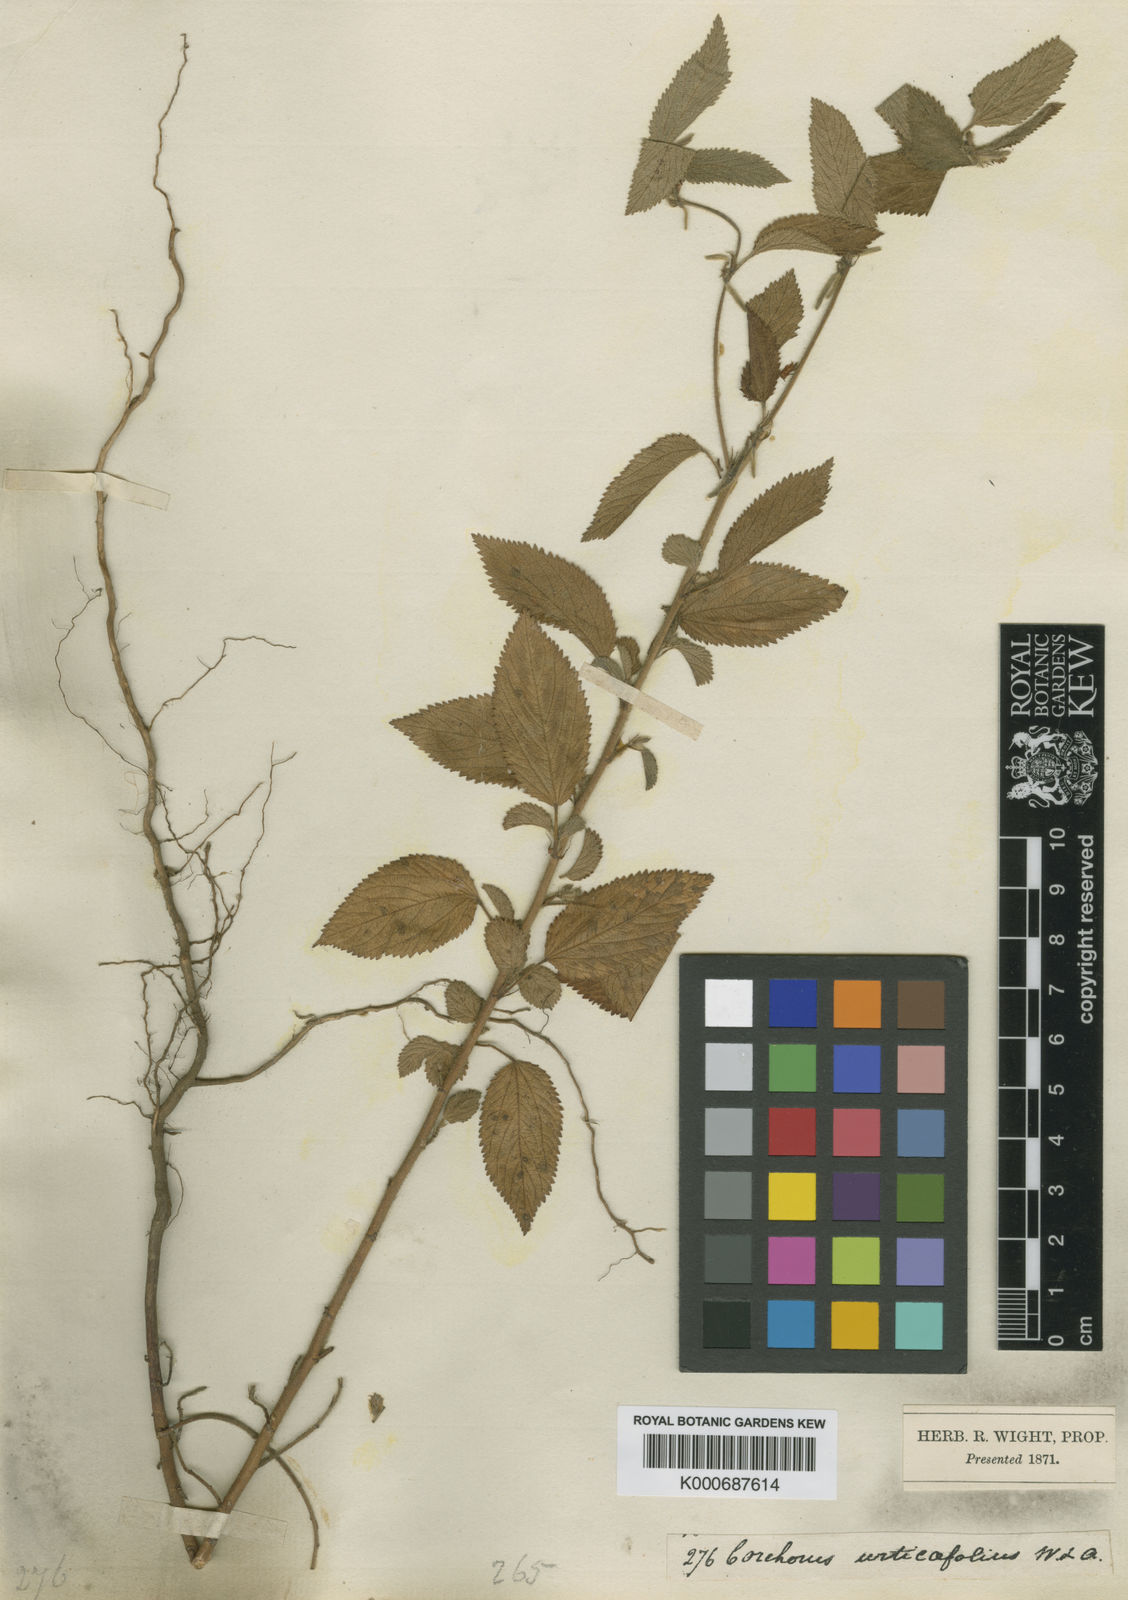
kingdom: Plantae
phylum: Tracheophyta
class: Magnoliopsida
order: Malvales
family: Malvaceae
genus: Corchorus
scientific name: Corchorus urticifolius
